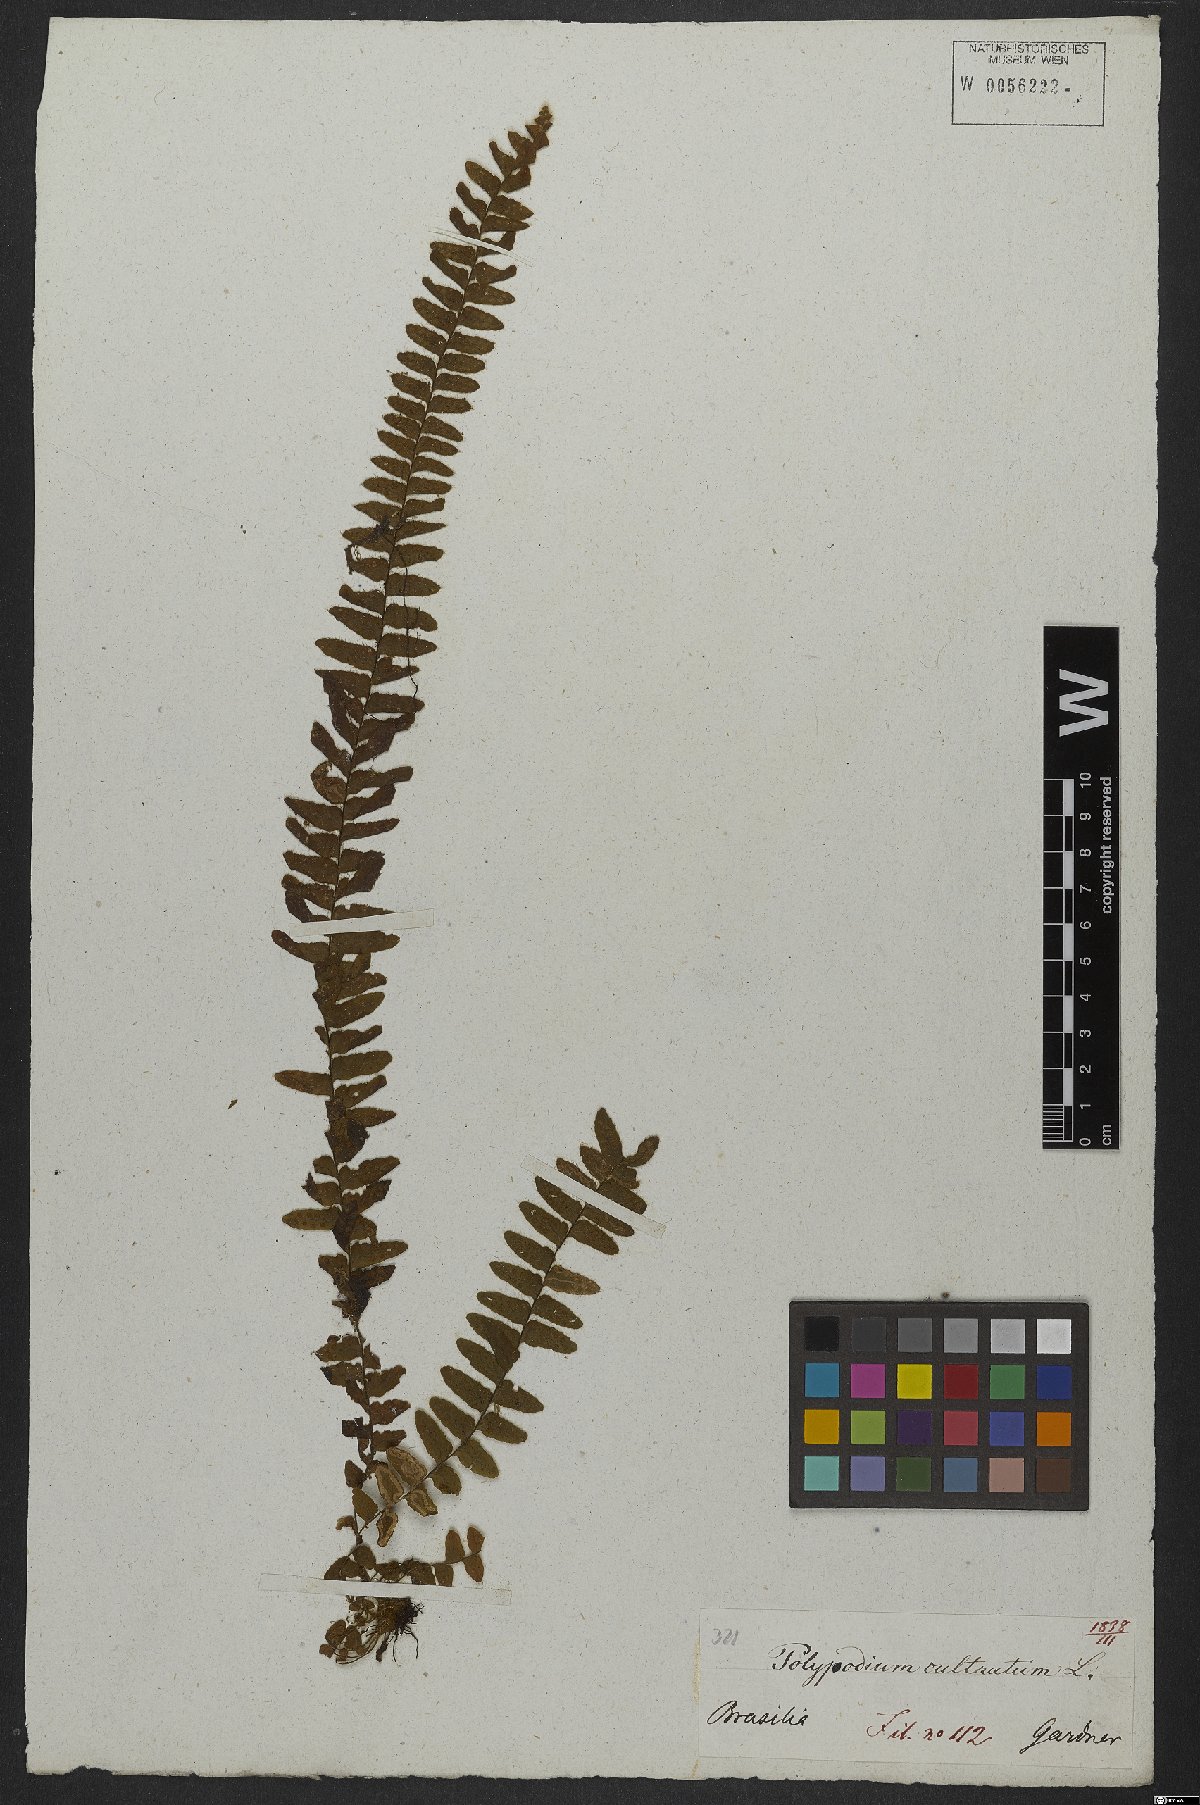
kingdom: Plantae
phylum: Tracheophyta
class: Polypodiopsida
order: Polypodiales
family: Polypodiaceae
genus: Alansmia
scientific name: Alansmia cultrata
